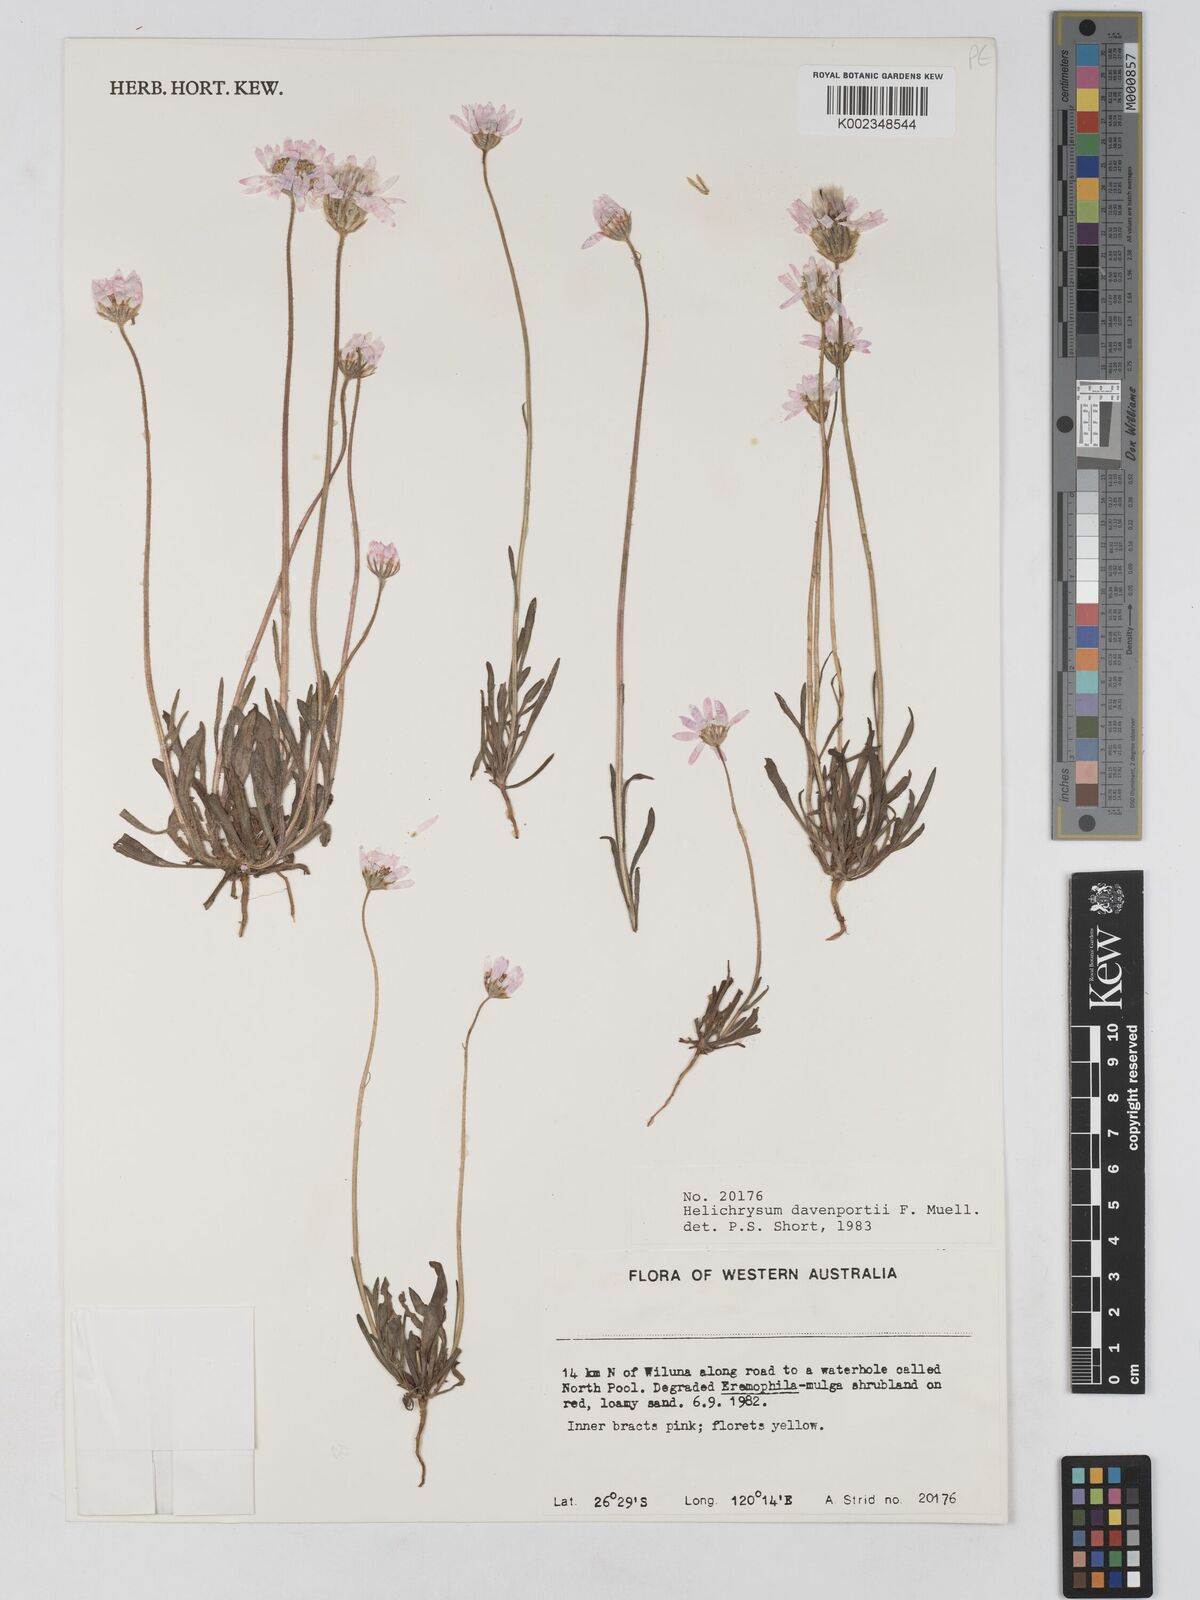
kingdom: Plantae
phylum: Tracheophyta
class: Magnoliopsida
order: Asterales
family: Asteraceae
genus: Lawrencella
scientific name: Lawrencella davenportii
